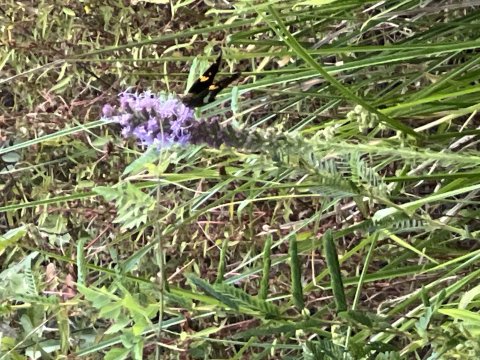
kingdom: Animalia
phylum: Arthropoda
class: Insecta
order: Lepidoptera
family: Hesperiidae
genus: Epargyreus
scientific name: Epargyreus clarus
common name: Silver-spotted Skipper
